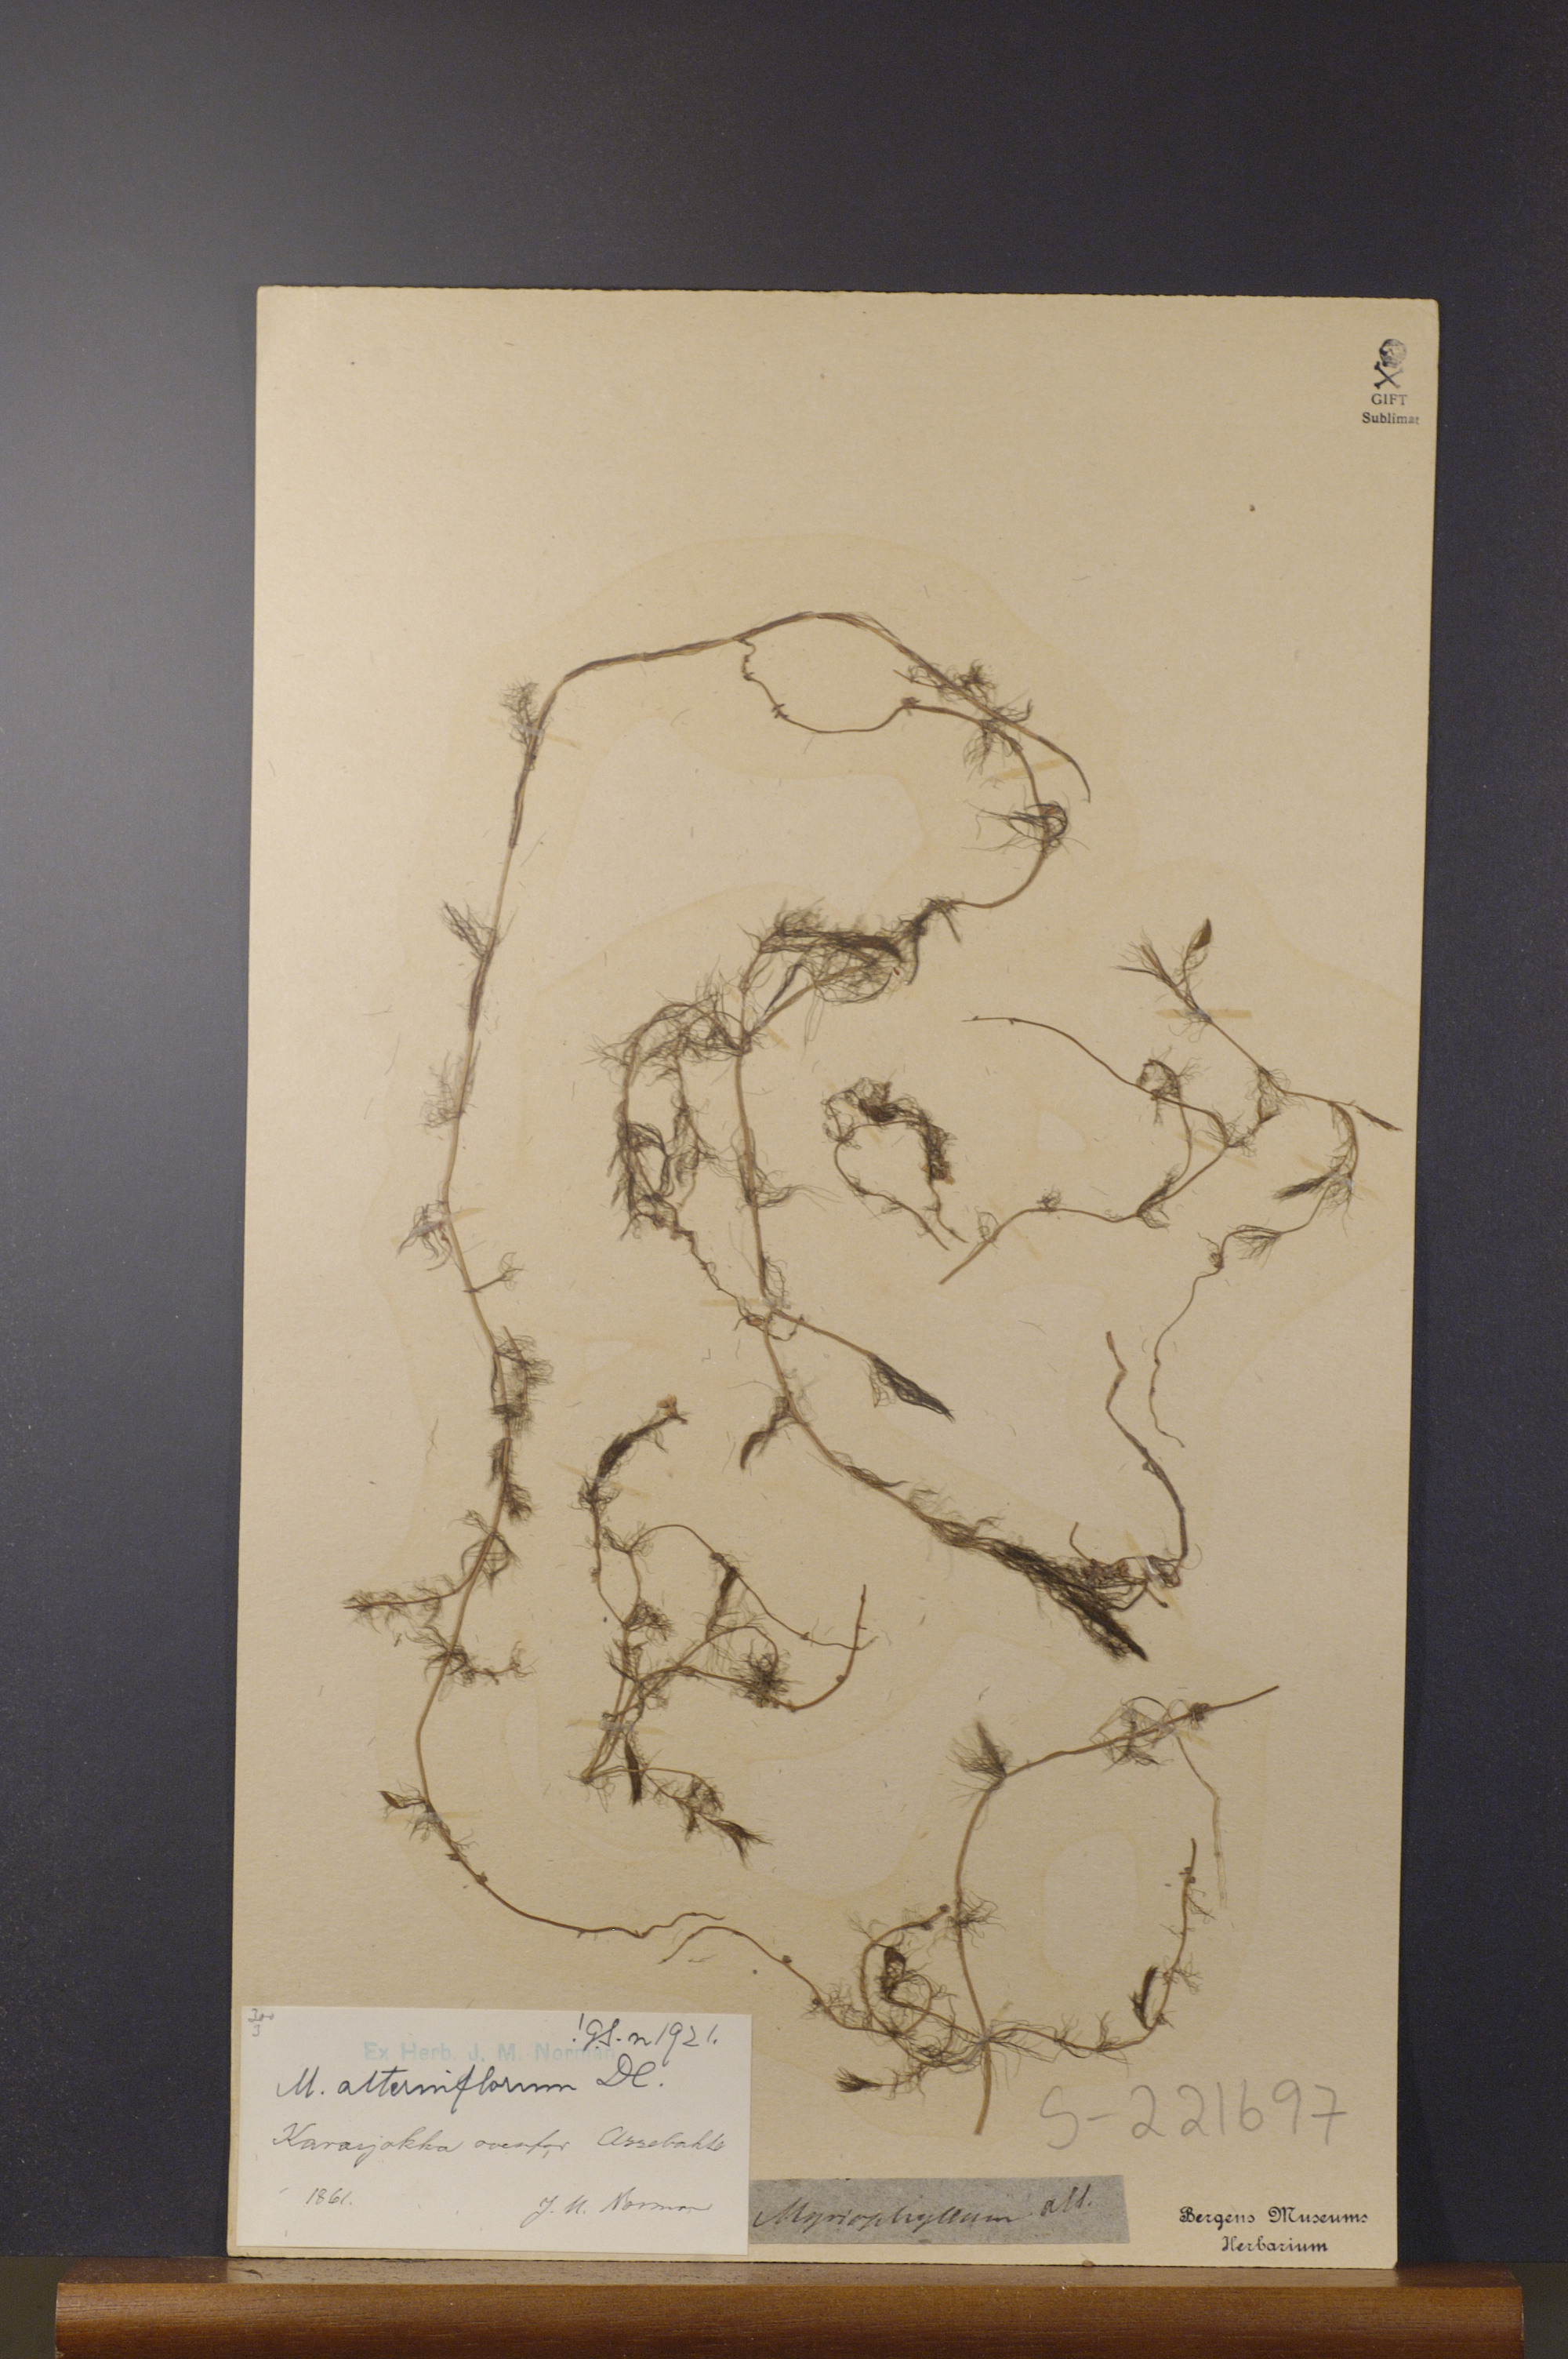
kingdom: Plantae
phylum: Tracheophyta
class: Magnoliopsida
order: Saxifragales
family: Haloragaceae
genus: Myriophyllum
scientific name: Myriophyllum alterniflorum
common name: Alternate water-milfoil
